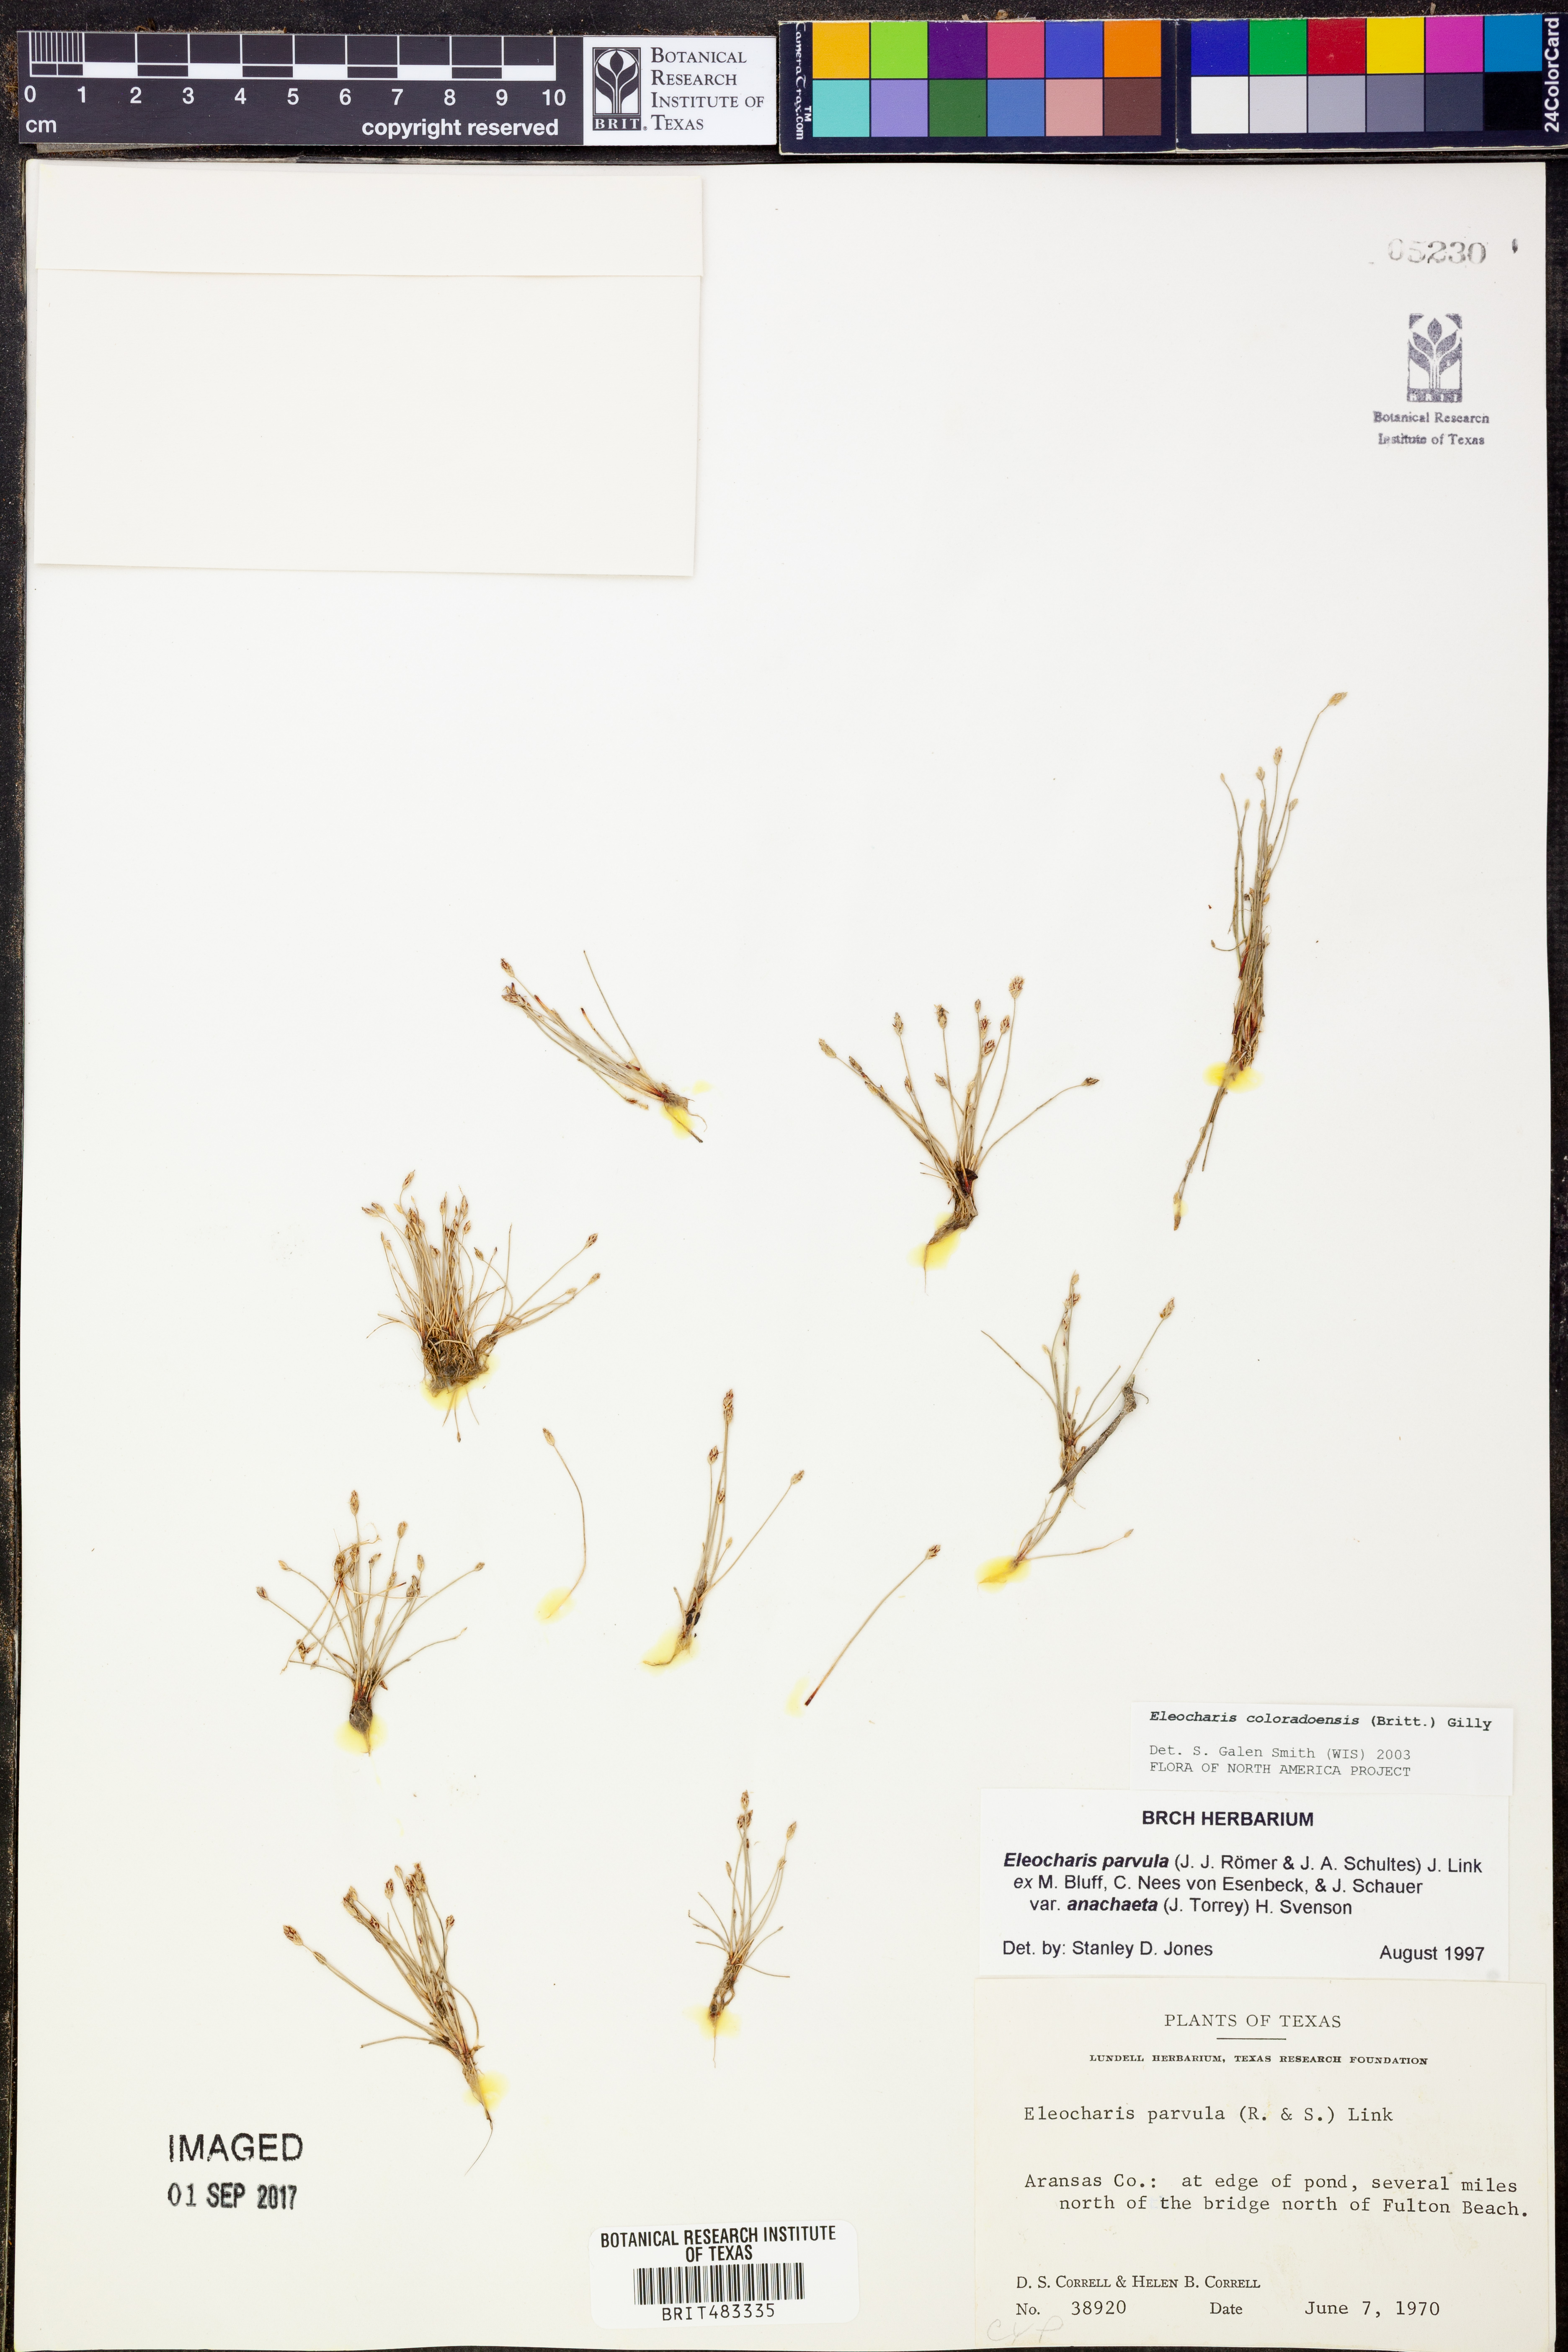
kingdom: Plantae
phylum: Tracheophyta
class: Liliopsida
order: Poales
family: Cyperaceae
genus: Eleocharis
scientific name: Eleocharis coloradoensis
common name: Colorado spikerush
